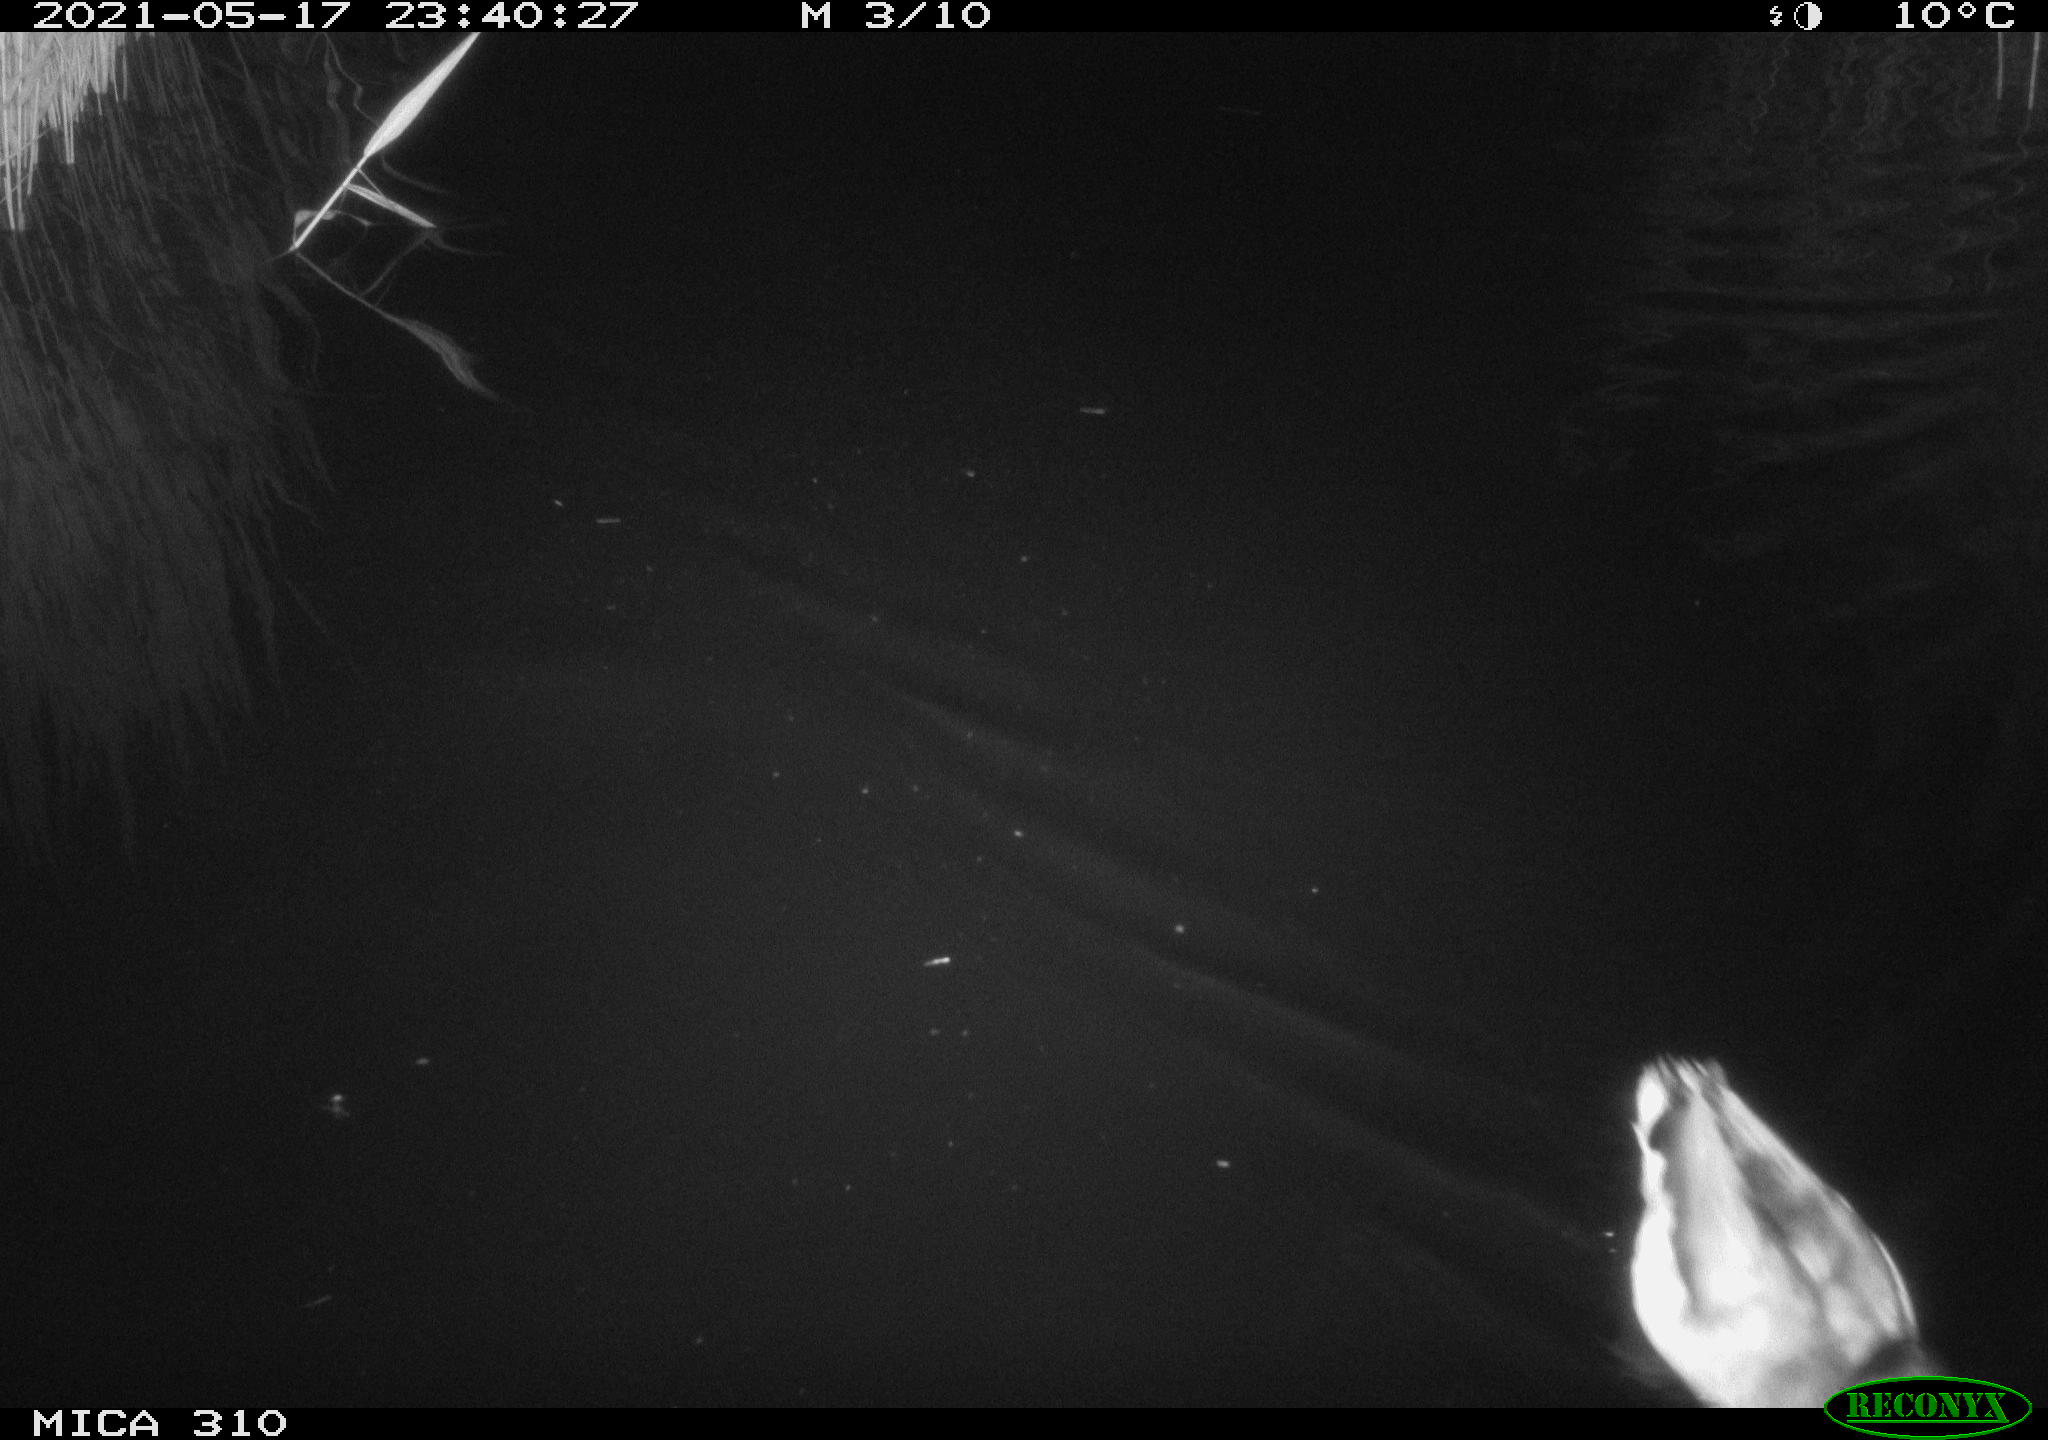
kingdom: Animalia
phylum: Chordata
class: Aves
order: Anseriformes
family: Anatidae
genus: Anas
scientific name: Anas platyrhynchos
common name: Mallard
